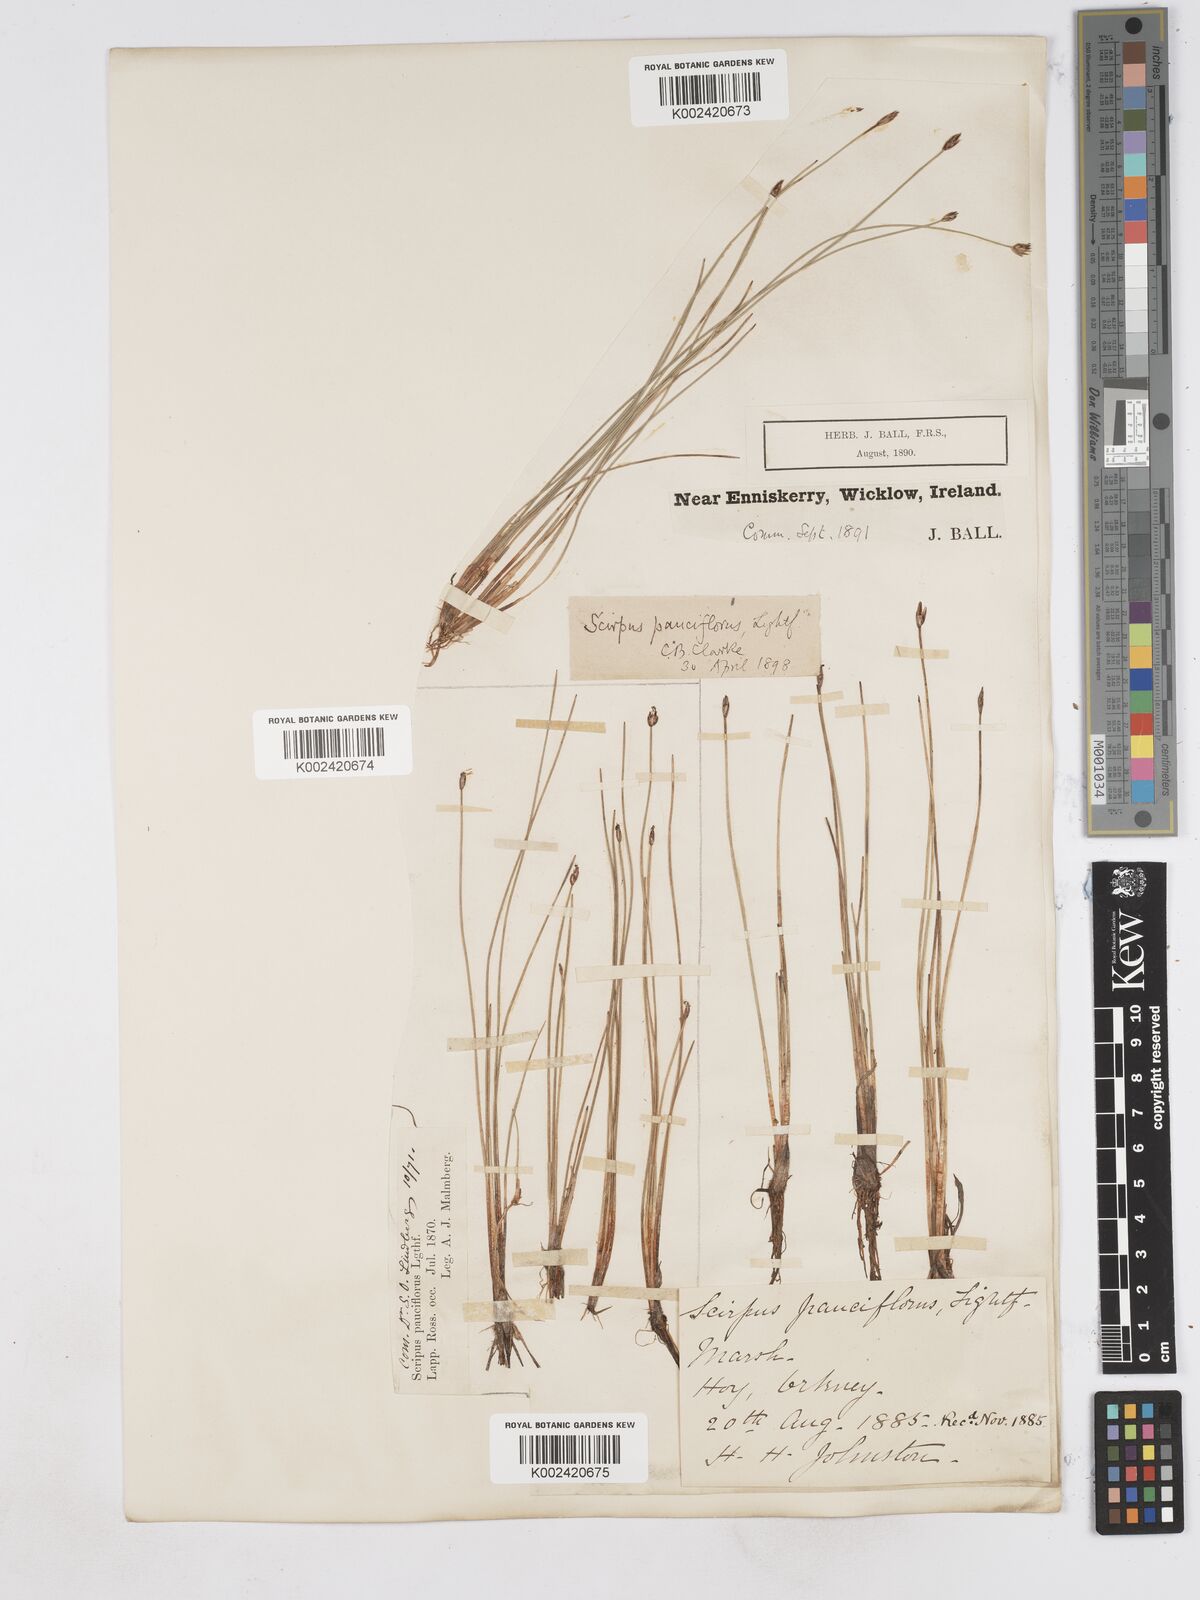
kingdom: Plantae
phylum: Tracheophyta
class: Liliopsida
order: Poales
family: Cyperaceae
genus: Eleocharis
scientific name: Eleocharis quinqueflora
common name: Few-flowered spike-rush
